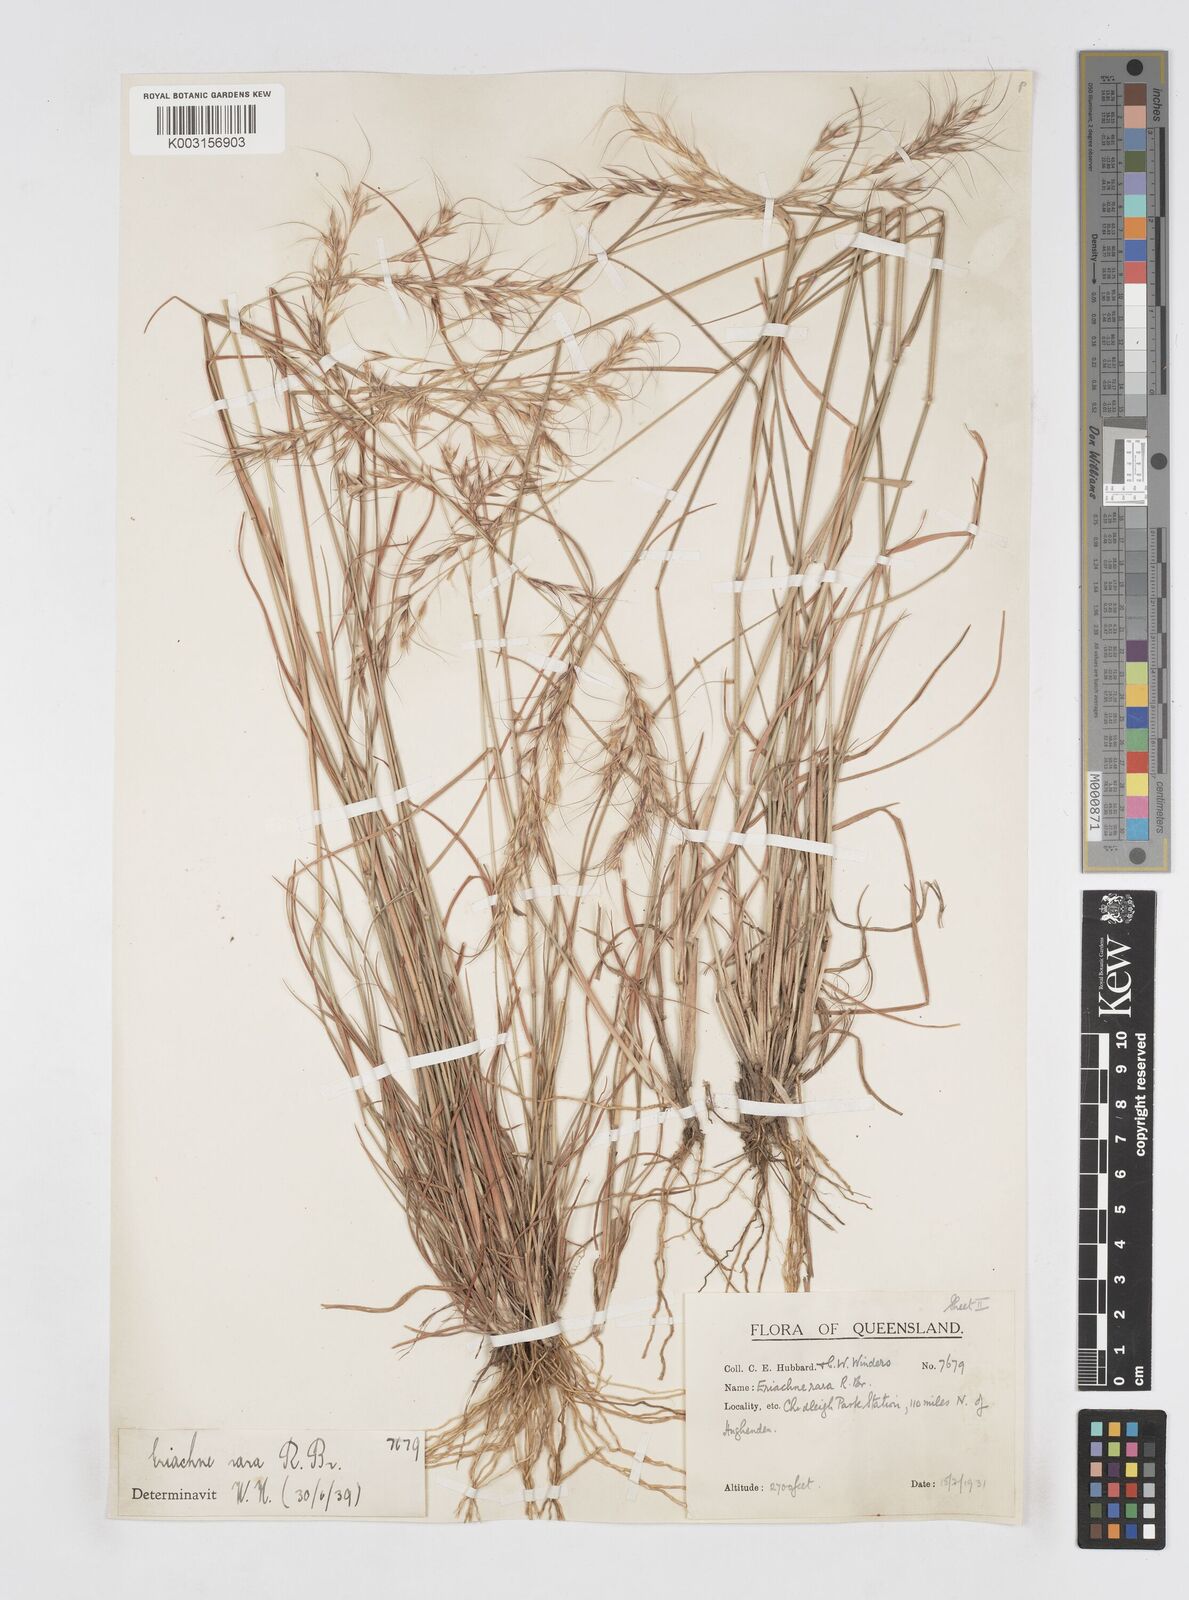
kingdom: Plantae
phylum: Tracheophyta
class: Liliopsida
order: Poales
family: Poaceae
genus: Eriachne
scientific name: Eriachne rara
